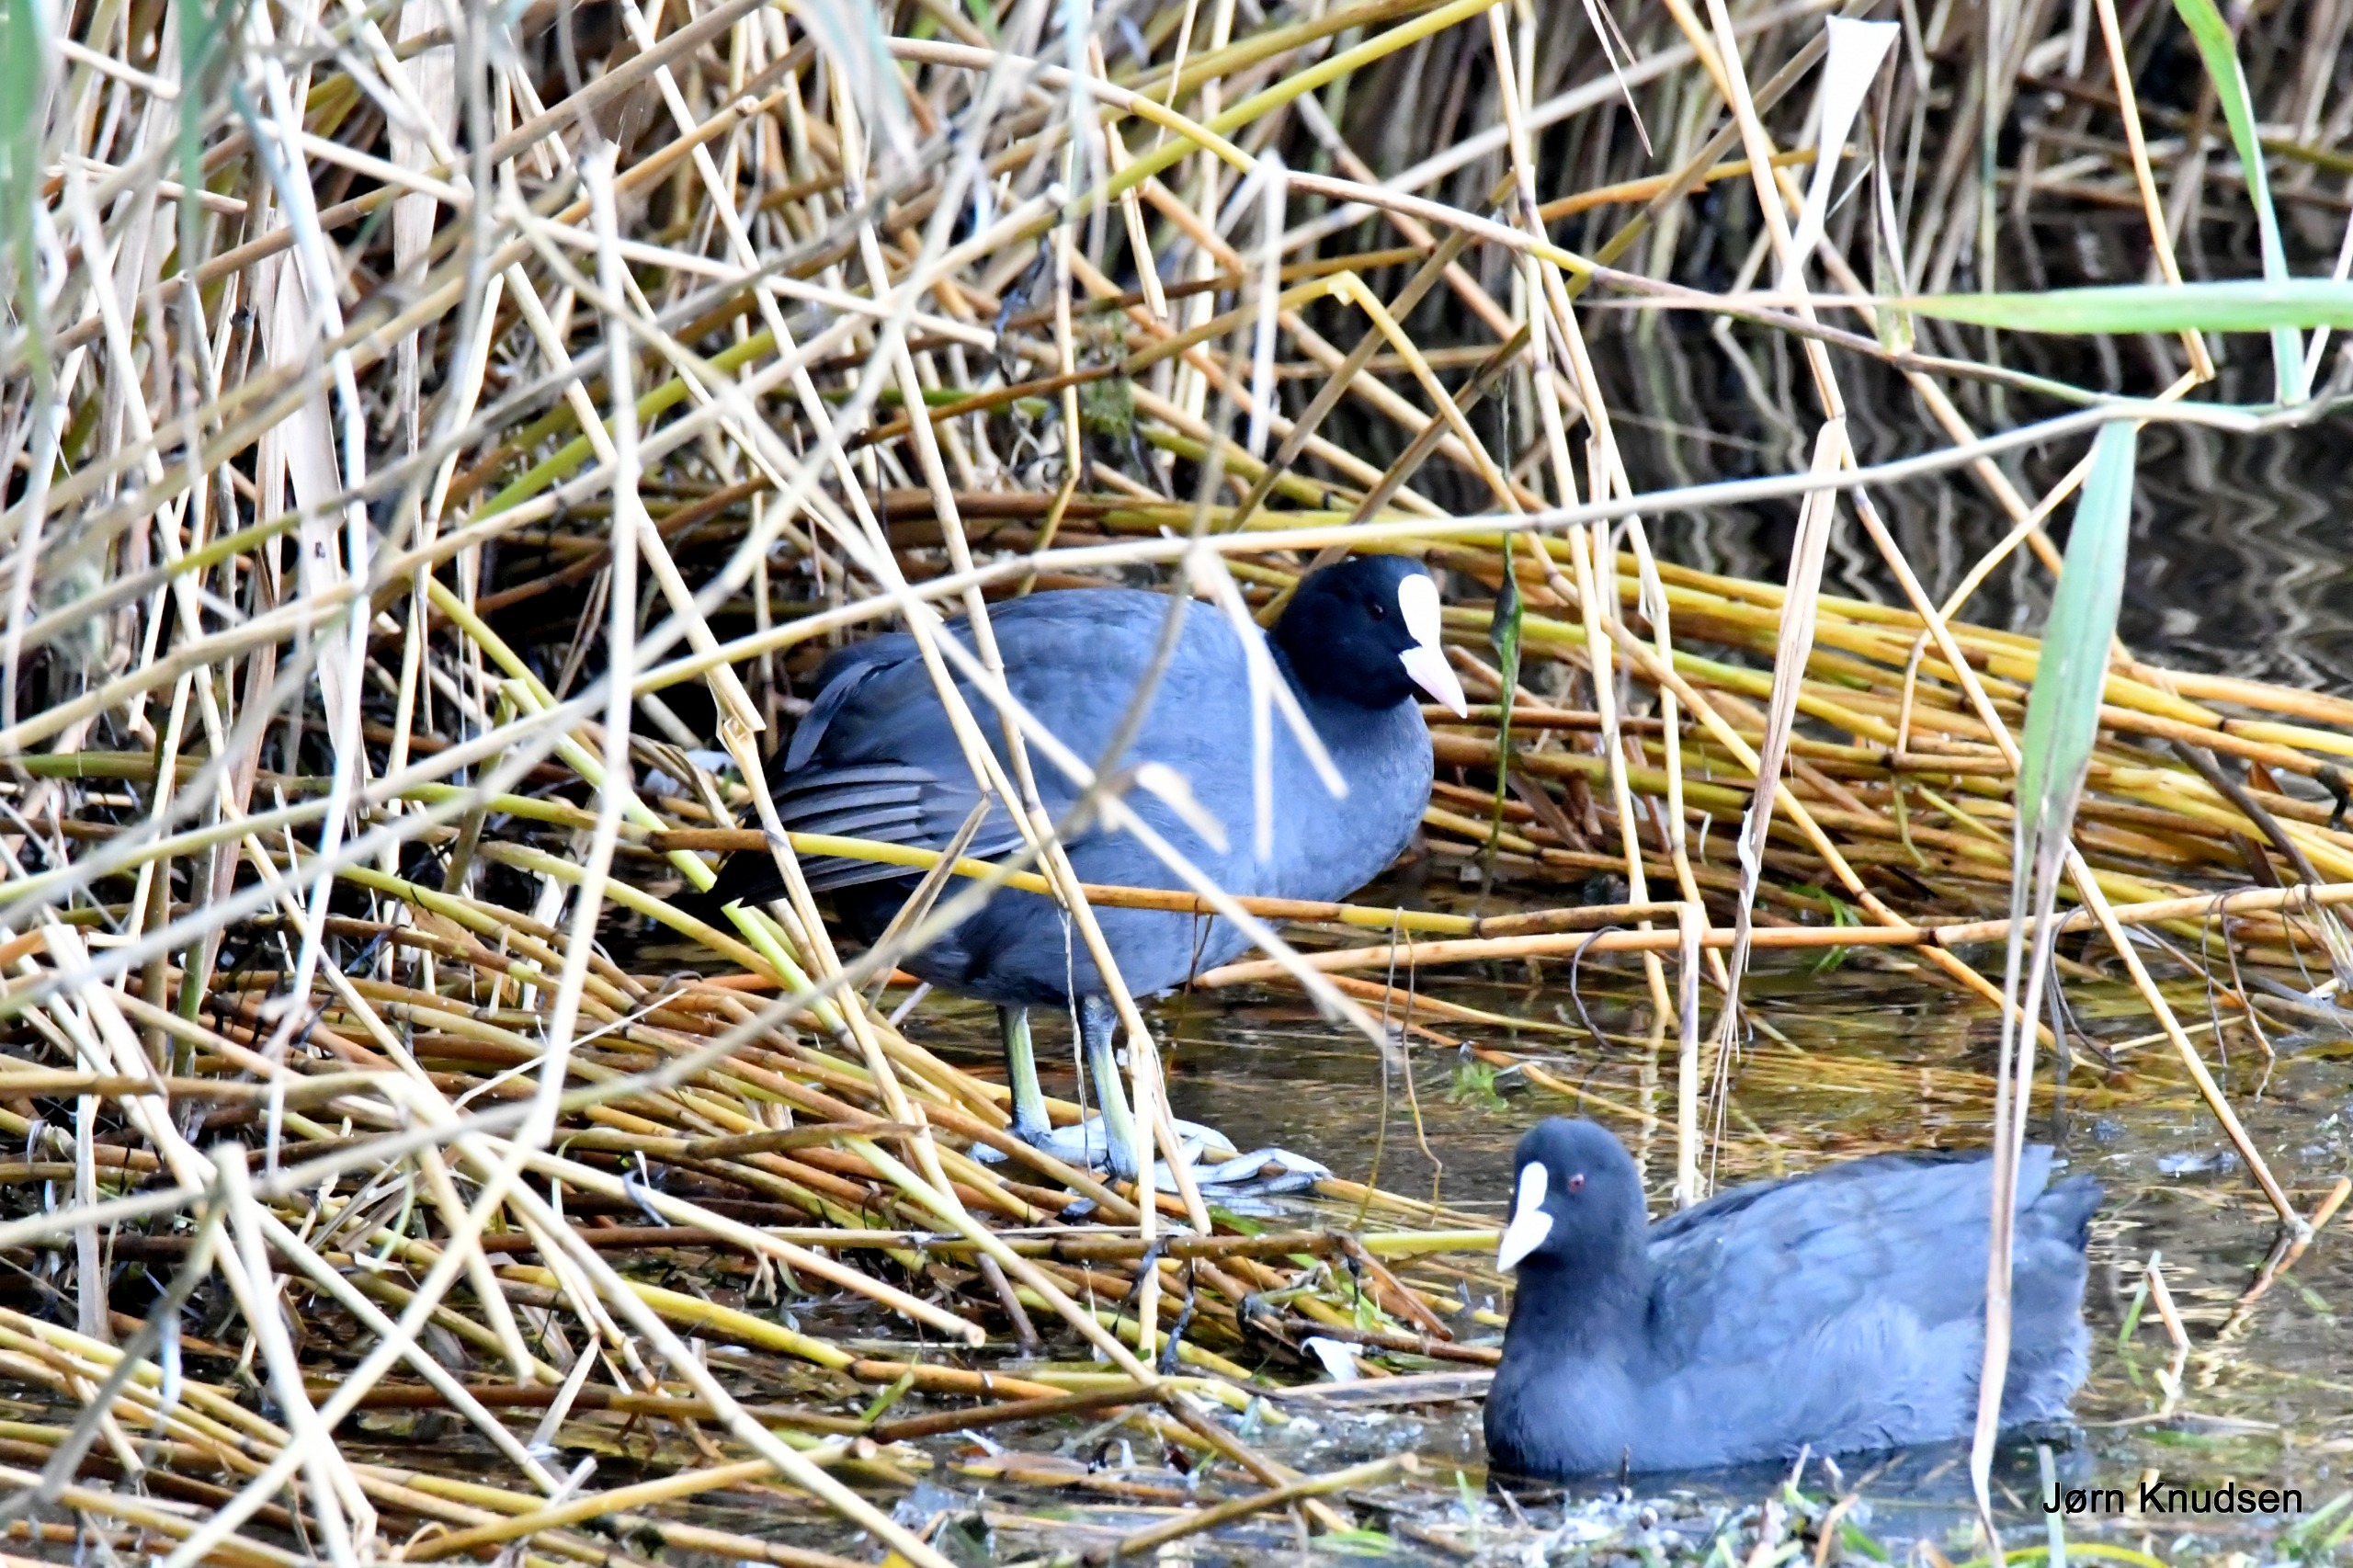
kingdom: Animalia
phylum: Chordata
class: Aves
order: Gruiformes
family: Rallidae
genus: Fulica
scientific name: Fulica atra
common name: Blishøne
